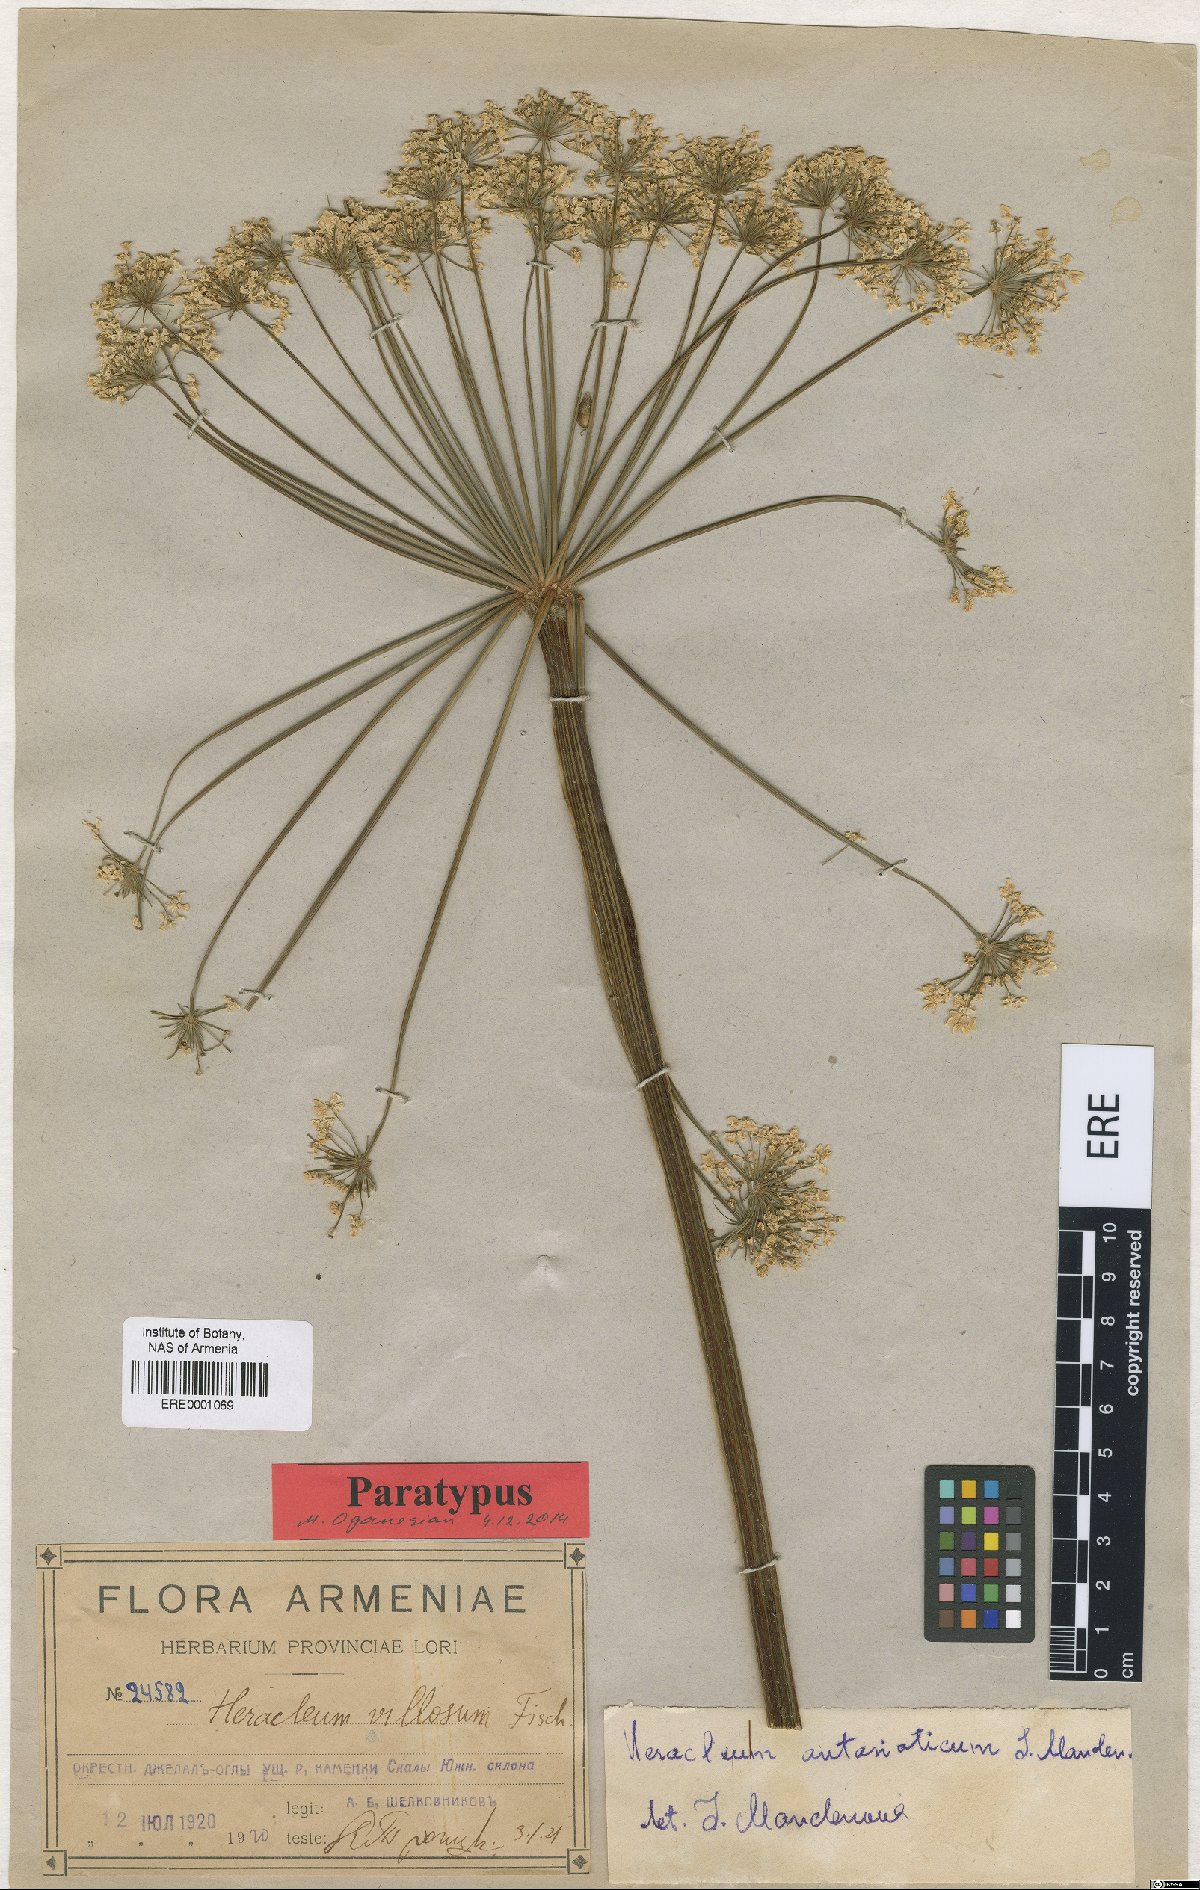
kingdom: Plantae
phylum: Tracheophyta
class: Magnoliopsida
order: Apiales
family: Apiaceae
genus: Heracleum
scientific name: Heracleum antasiaticum
